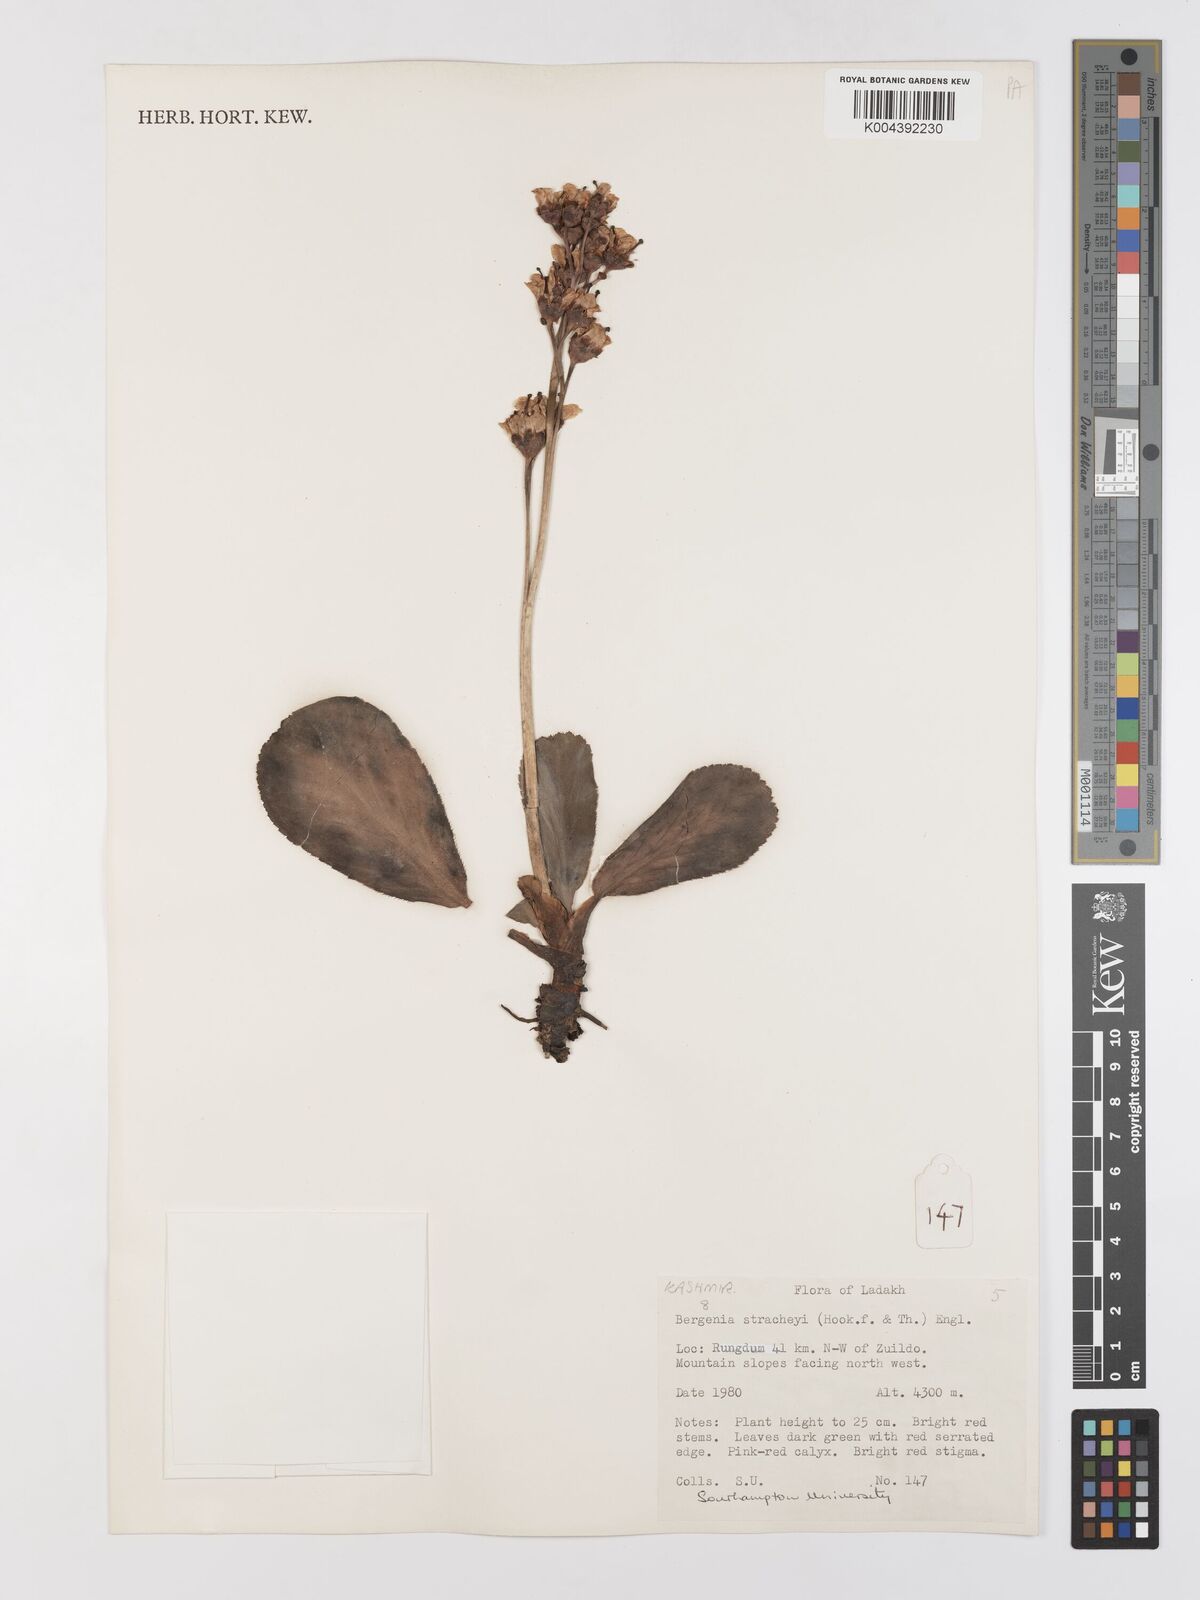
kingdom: Plantae
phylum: Tracheophyta
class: Magnoliopsida
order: Saxifragales
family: Saxifragaceae
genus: Bergenia
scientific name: Bergenia stracheyi
